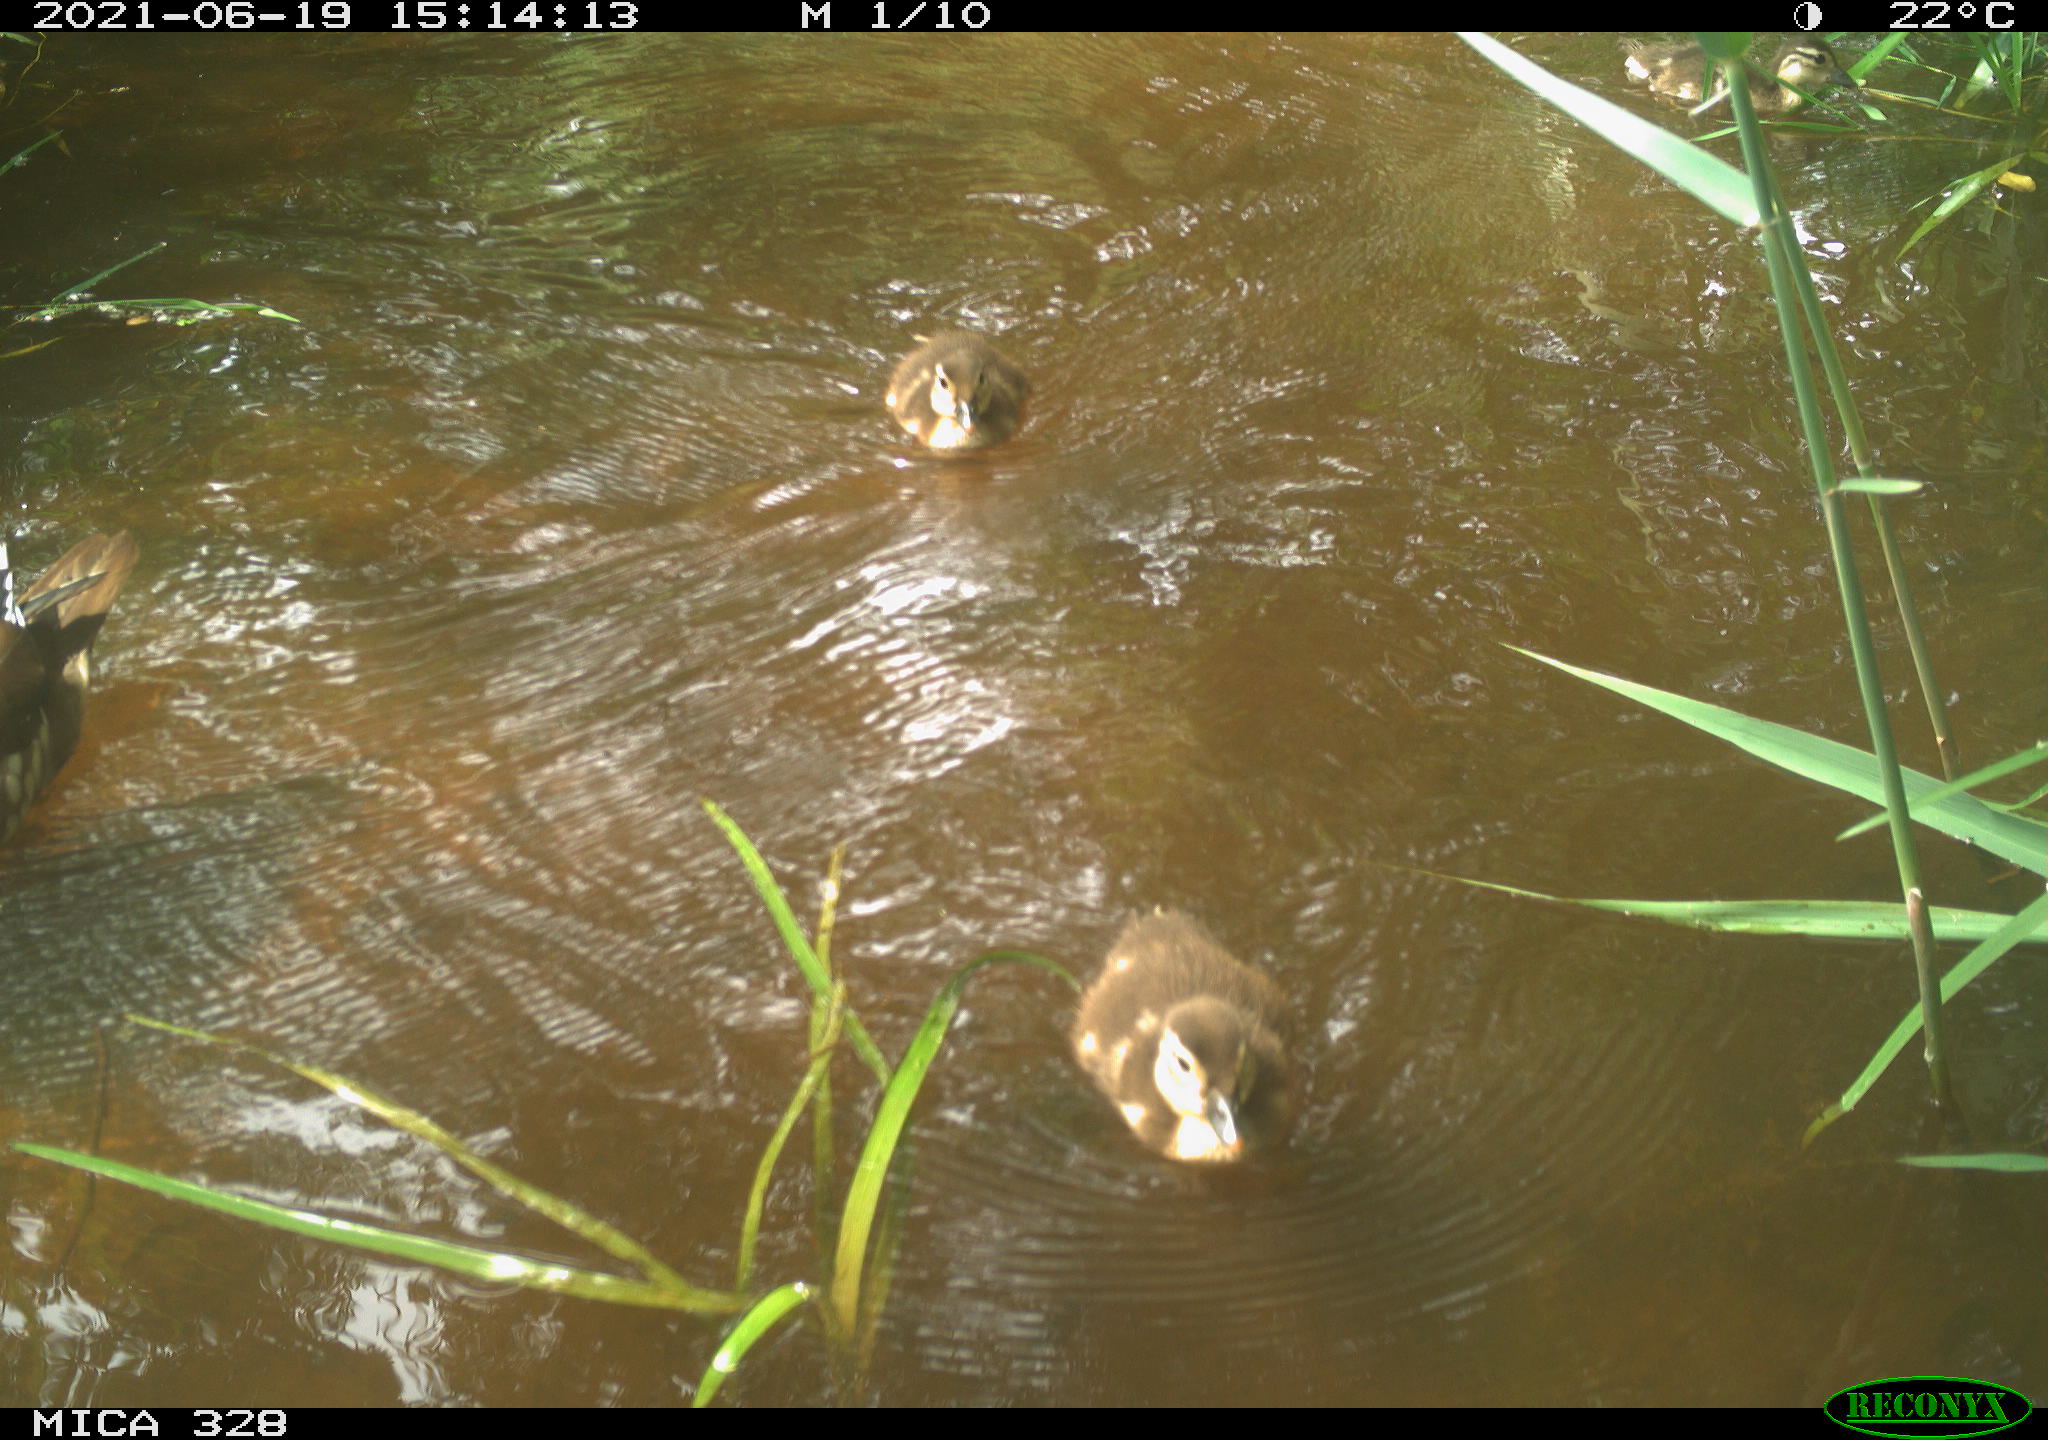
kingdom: Animalia
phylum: Chordata
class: Aves
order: Anseriformes
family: Anatidae
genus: Aix
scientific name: Aix galericulata
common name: Mandarin duck
